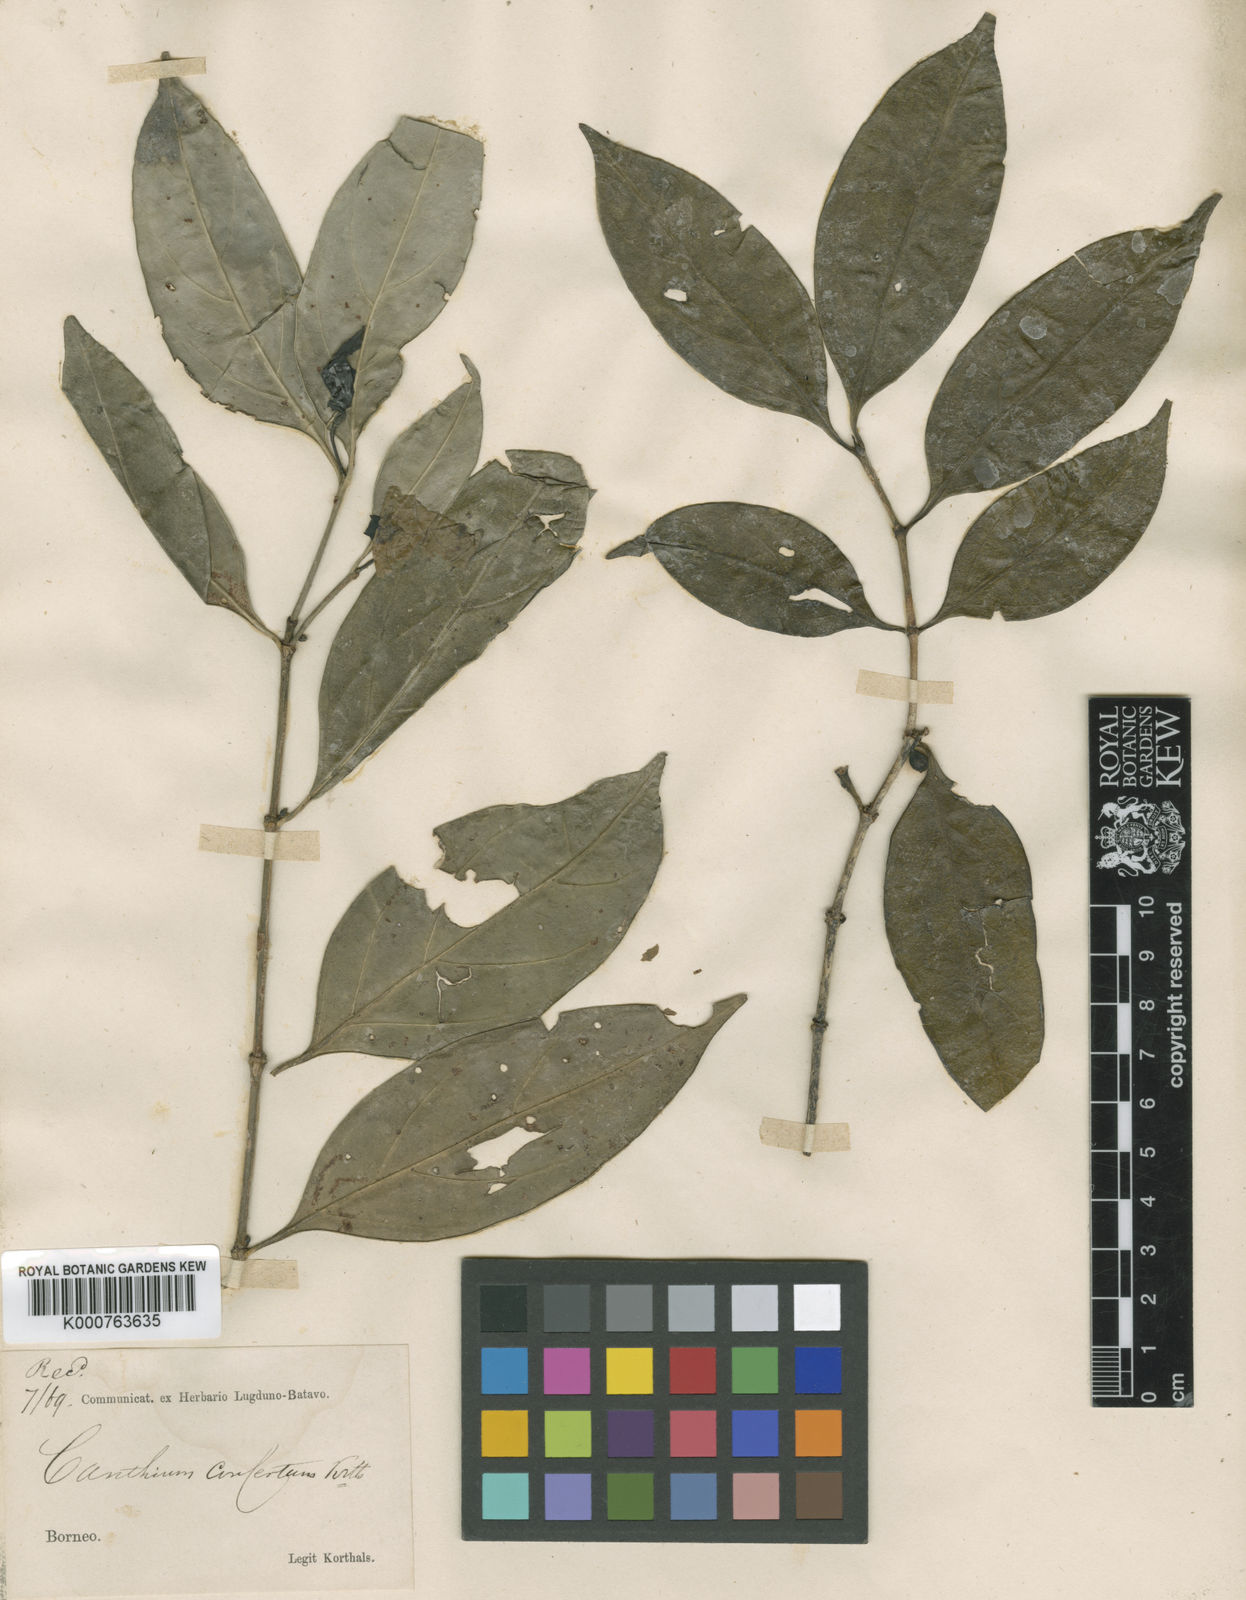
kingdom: Plantae
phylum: Tracheophyta
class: Magnoliopsida
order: Gentianales
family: Rubiaceae
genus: Dibridsonia
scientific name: Dibridsonia conferta
